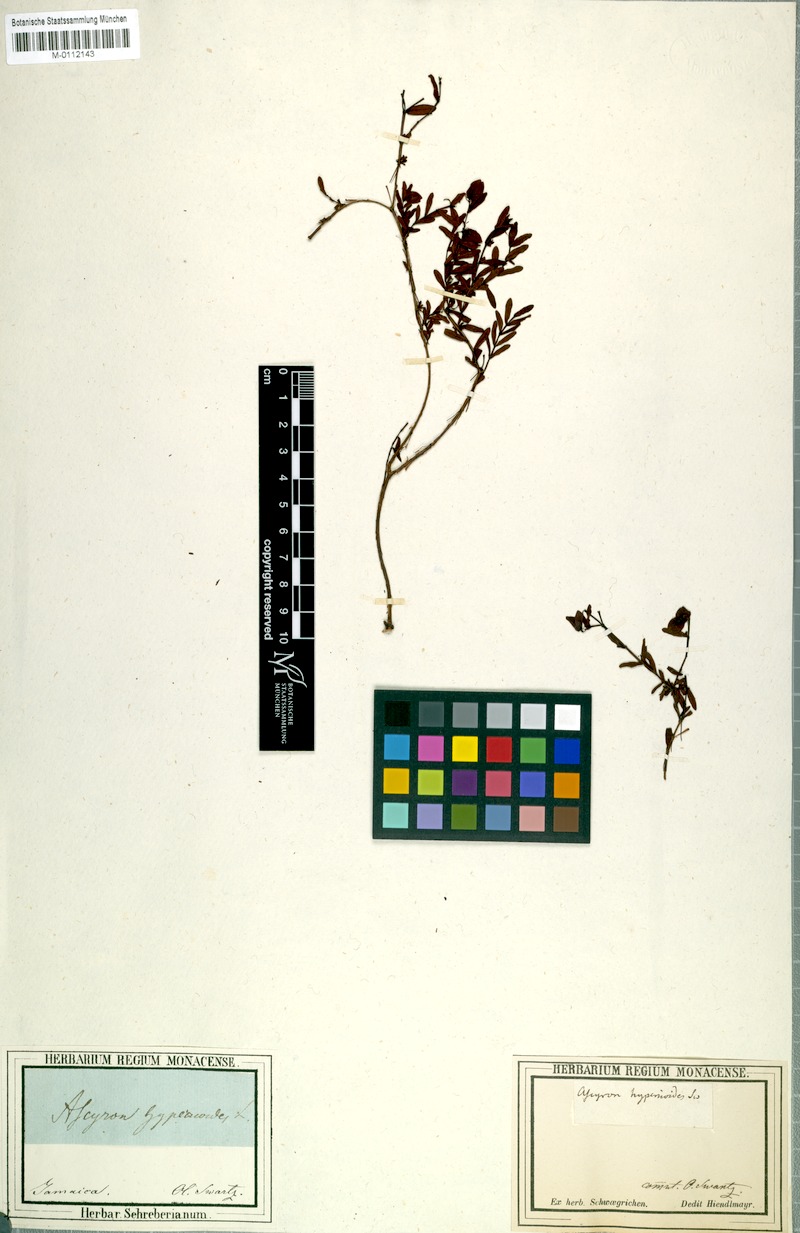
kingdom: Plantae
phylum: Tracheophyta
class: Magnoliopsida
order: Malpighiales
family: Hypericaceae
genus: Hypericum
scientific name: Hypericum hypericoides
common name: St. andrew's cross
